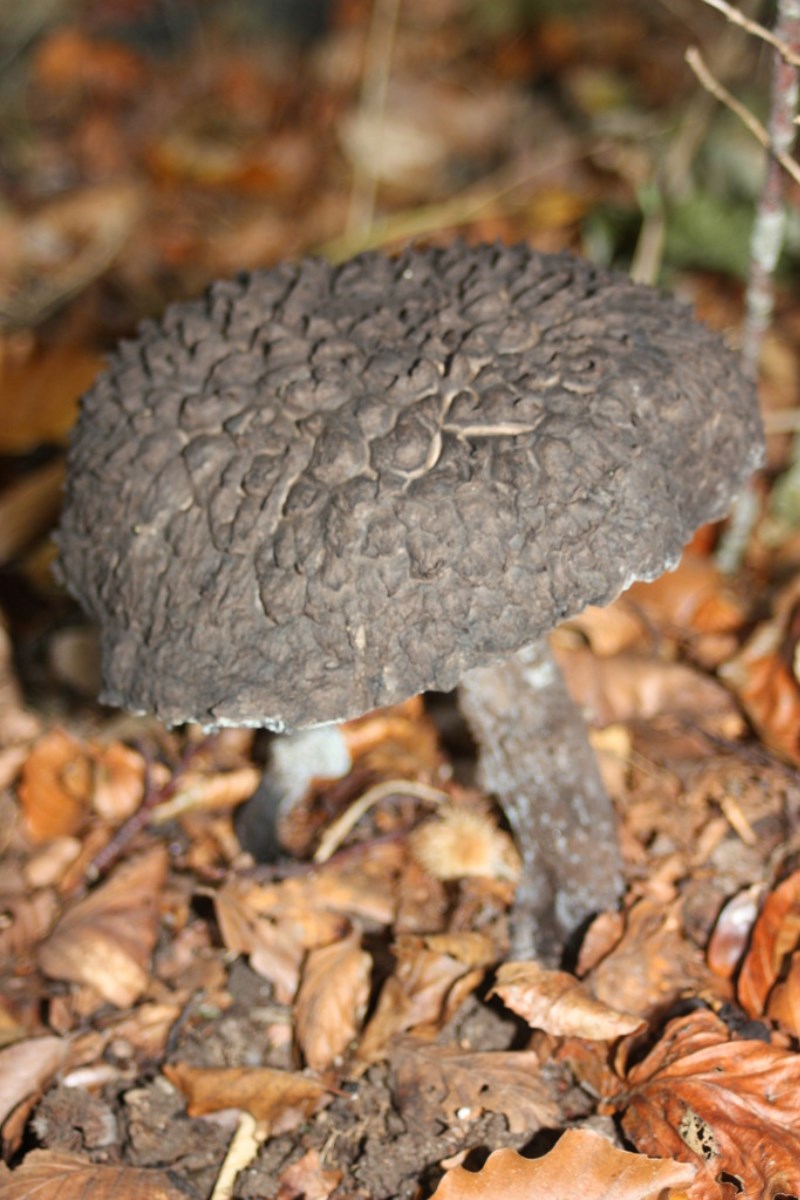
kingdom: Fungi
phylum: Basidiomycota
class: Agaricomycetes
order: Boletales
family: Boletaceae
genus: Strobilomyces
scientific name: Strobilomyces strobilaceus
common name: koglerørhat
